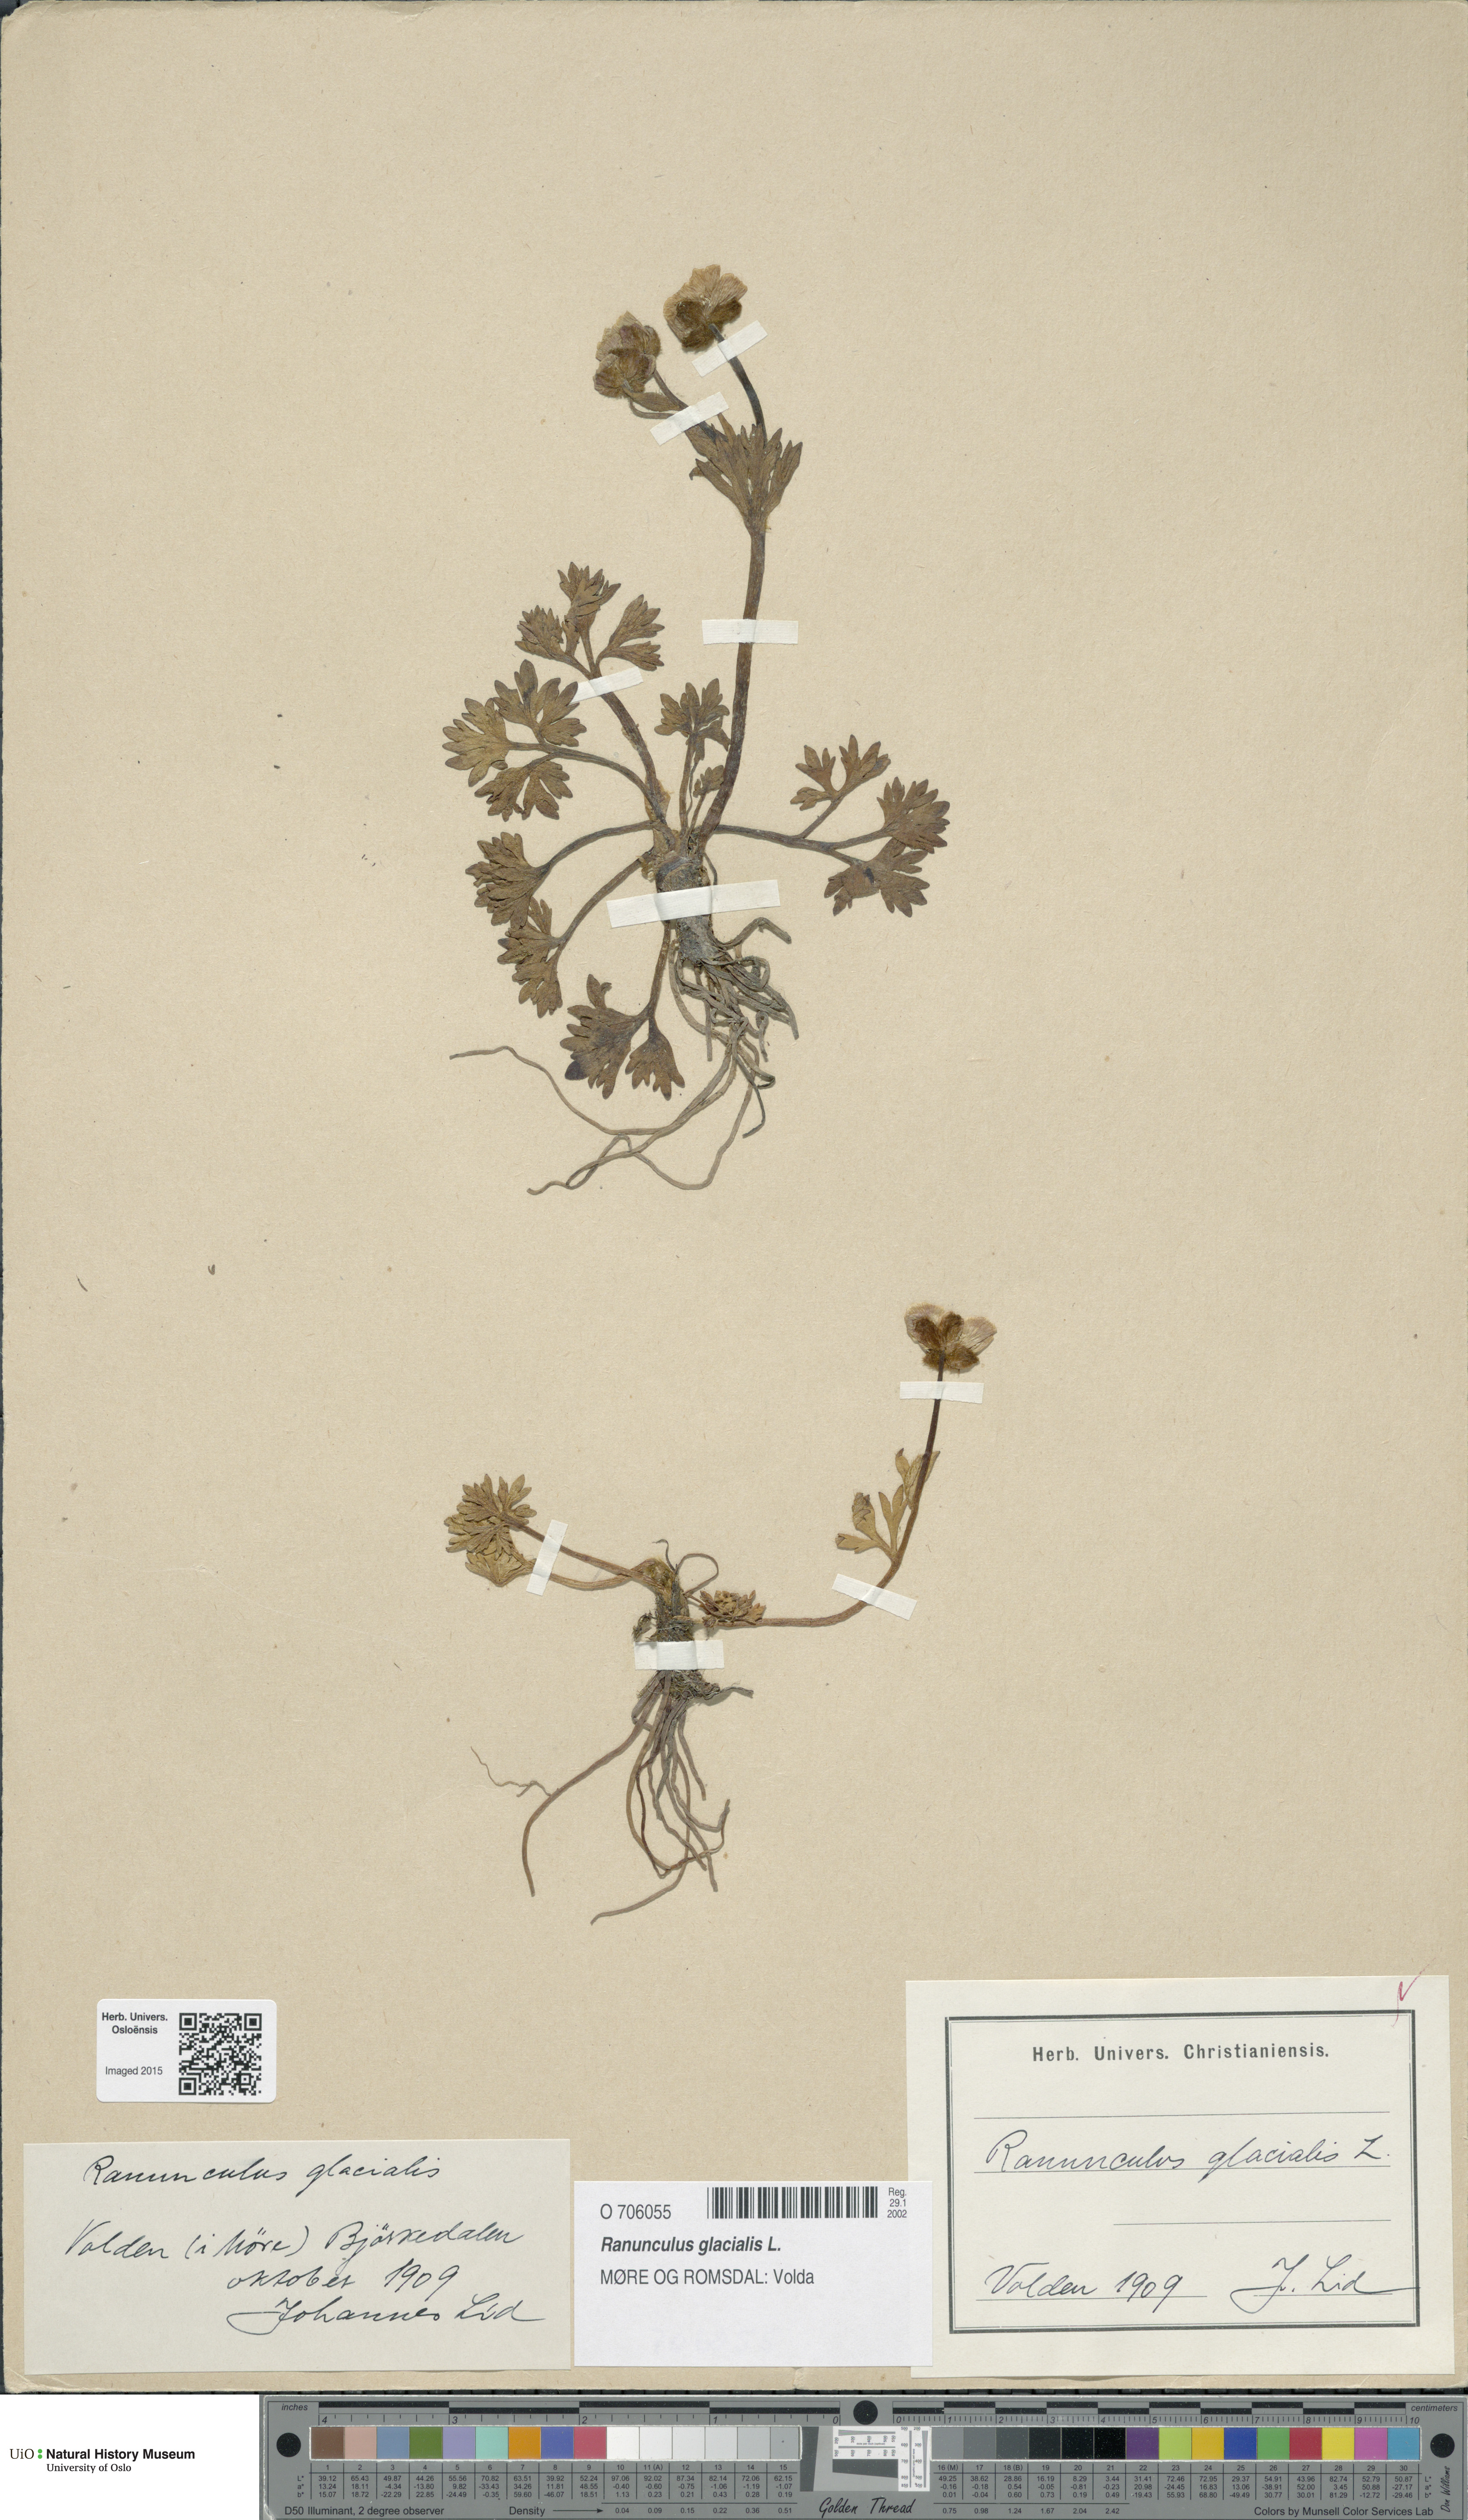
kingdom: Plantae
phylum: Tracheophyta
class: Magnoliopsida
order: Ranunculales
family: Ranunculaceae
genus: Ranunculus
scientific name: Ranunculus glacialis
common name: Glacier buttercup
